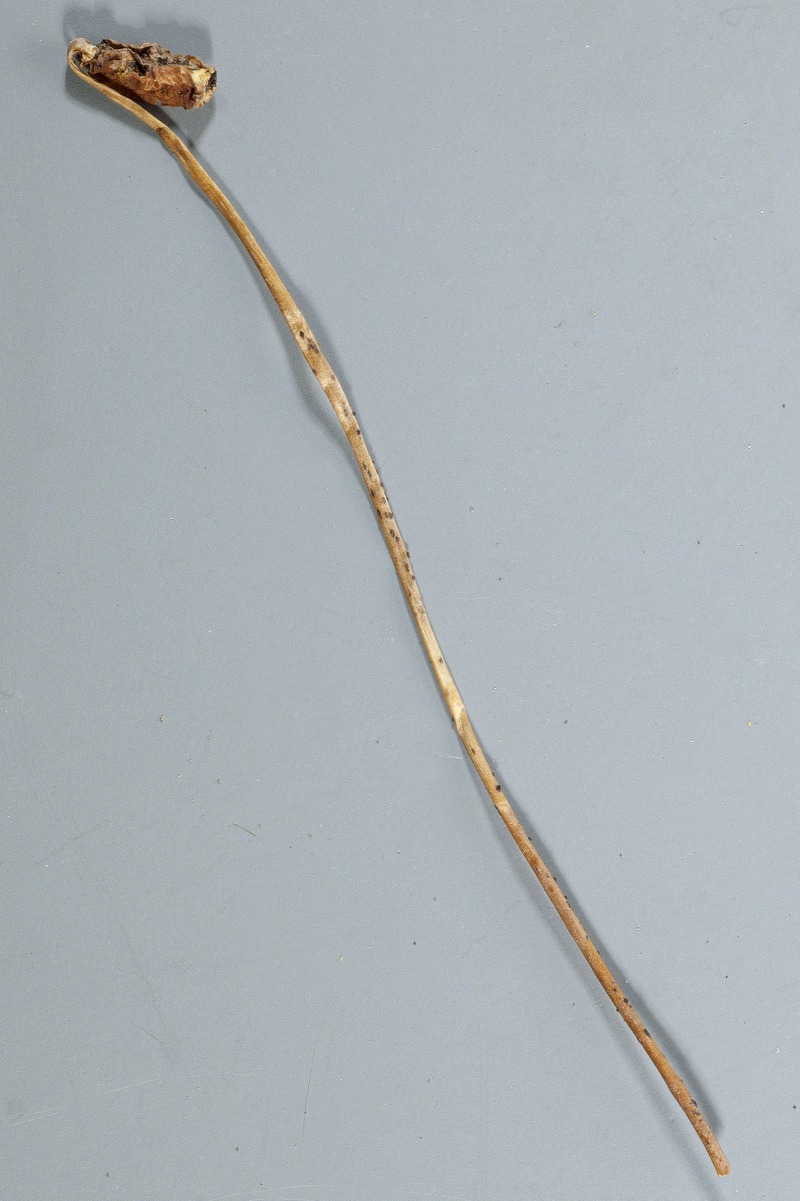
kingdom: Fungi
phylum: Ascomycota
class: Leotiomycetes
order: Helotiales
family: Pezizellaceae
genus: Velutaria
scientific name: Velutaria polytrichi
